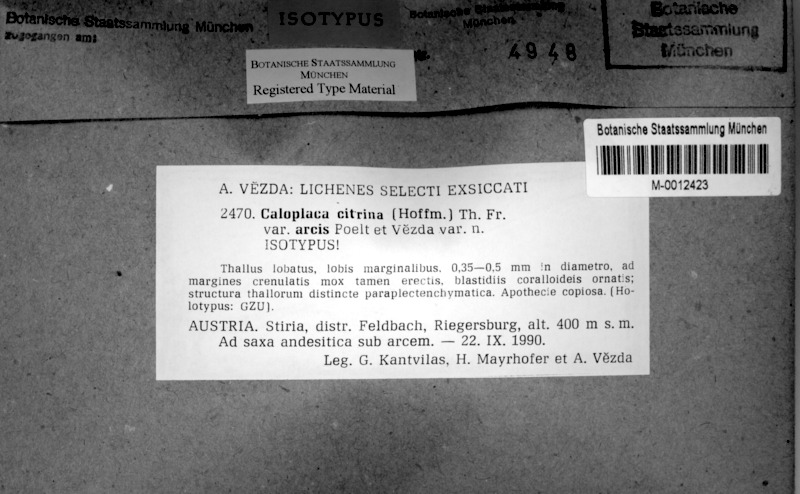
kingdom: Fungi
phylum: Ascomycota
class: Lecanoromycetes
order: Teloschistales
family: Teloschistaceae
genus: Flavoplaca
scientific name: Flavoplaca arcis
